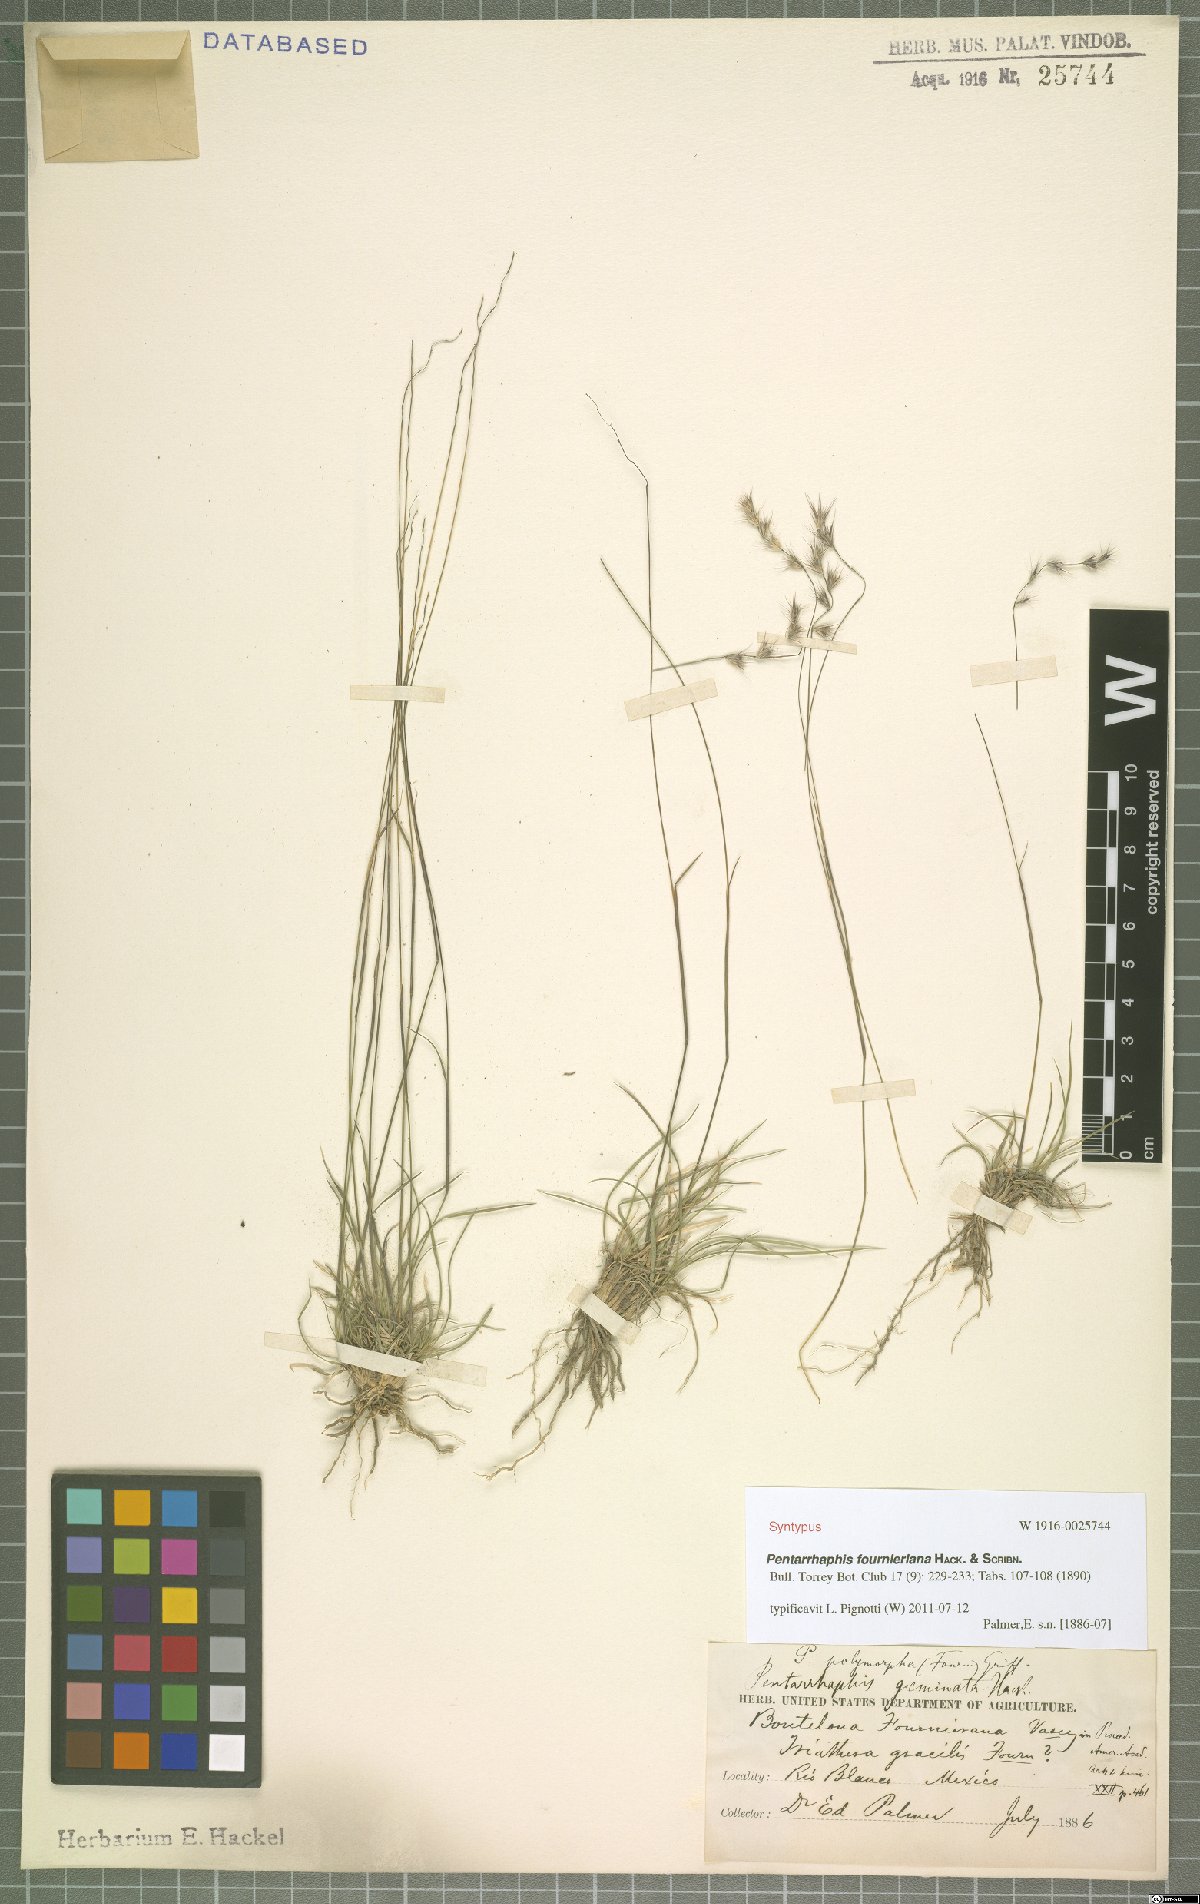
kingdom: Plantae
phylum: Tracheophyta
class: Liliopsida
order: Poales
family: Poaceae
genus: Bouteloua
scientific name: Bouteloua Pentarrhaphis fournieriana
